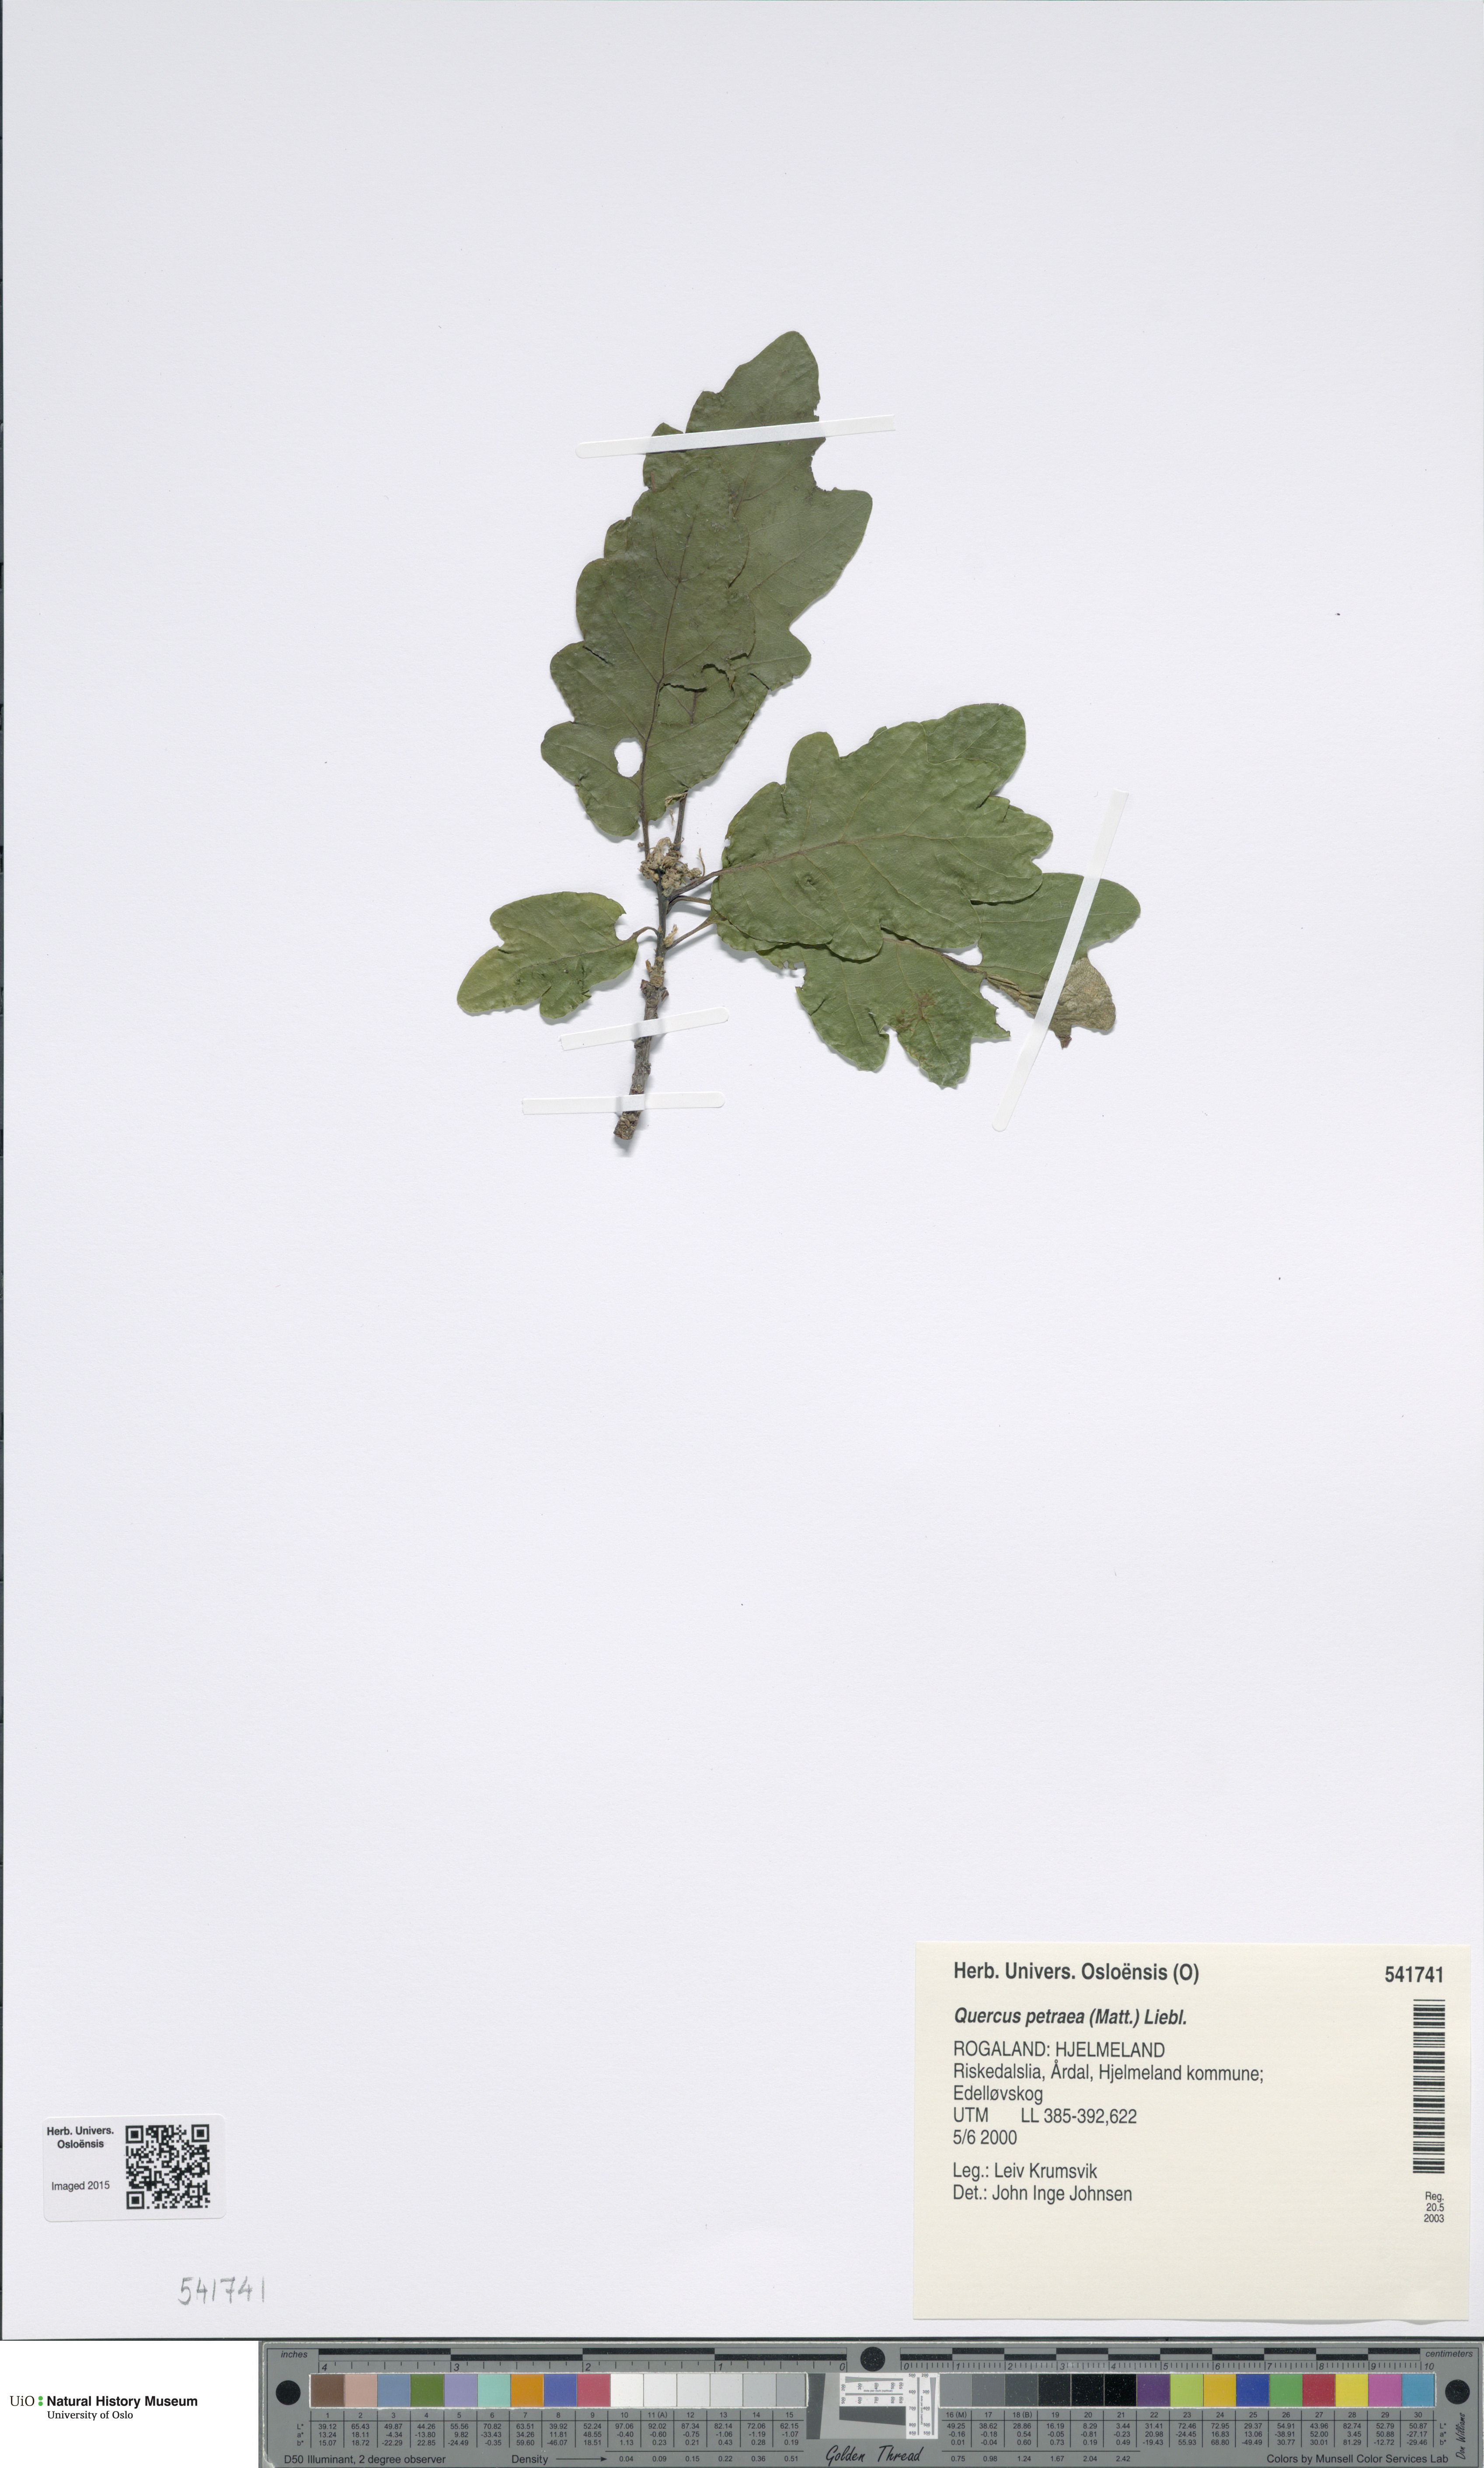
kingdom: Plantae
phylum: Tracheophyta
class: Magnoliopsida
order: Fagales
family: Fagaceae
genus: Quercus
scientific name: Quercus petraea
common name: Sessile oak
